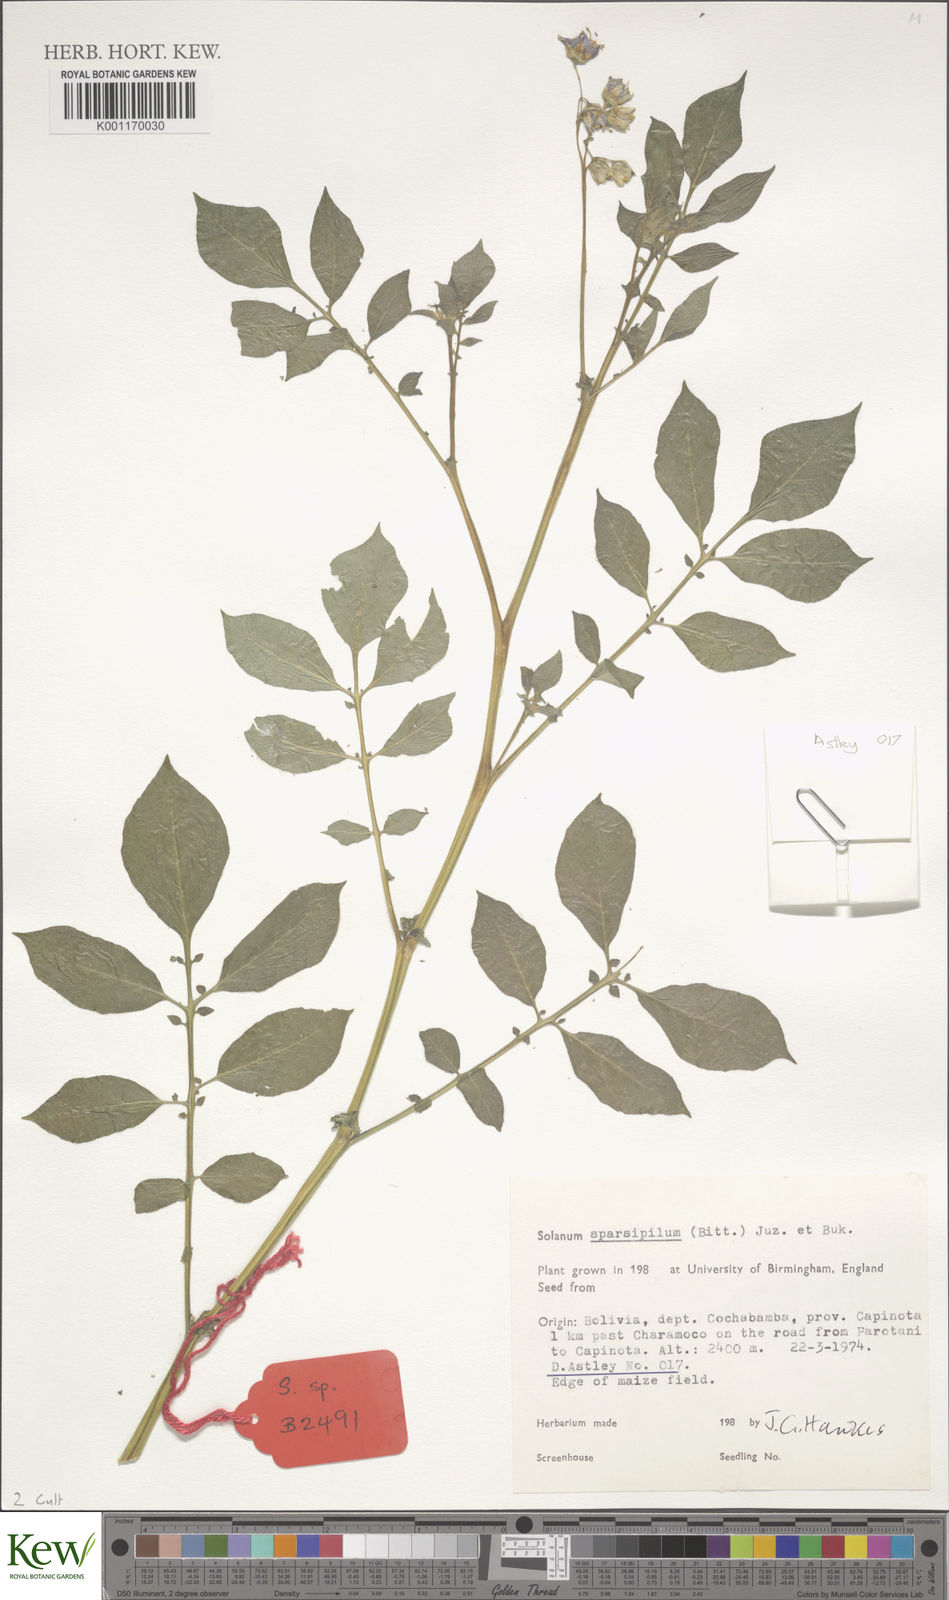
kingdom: Plantae
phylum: Tracheophyta
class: Magnoliopsida
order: Solanales
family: Solanaceae
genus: Solanum
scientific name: Solanum brevicaule
